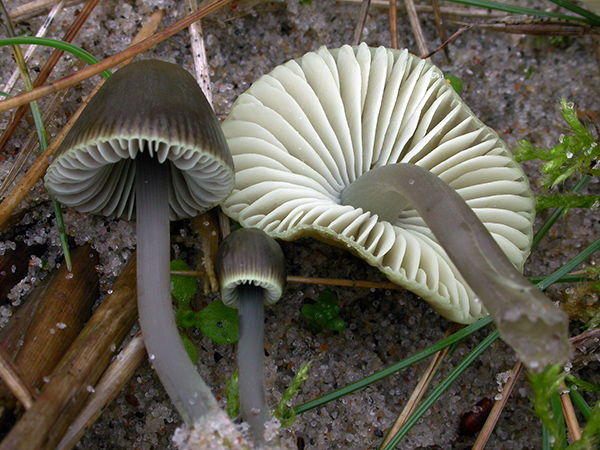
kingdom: Fungi
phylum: Basidiomycota
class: Agaricomycetes
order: Agaricales
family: Mycenaceae
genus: Mycena
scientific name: Mycena chlorantha
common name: klit-huesvamp
